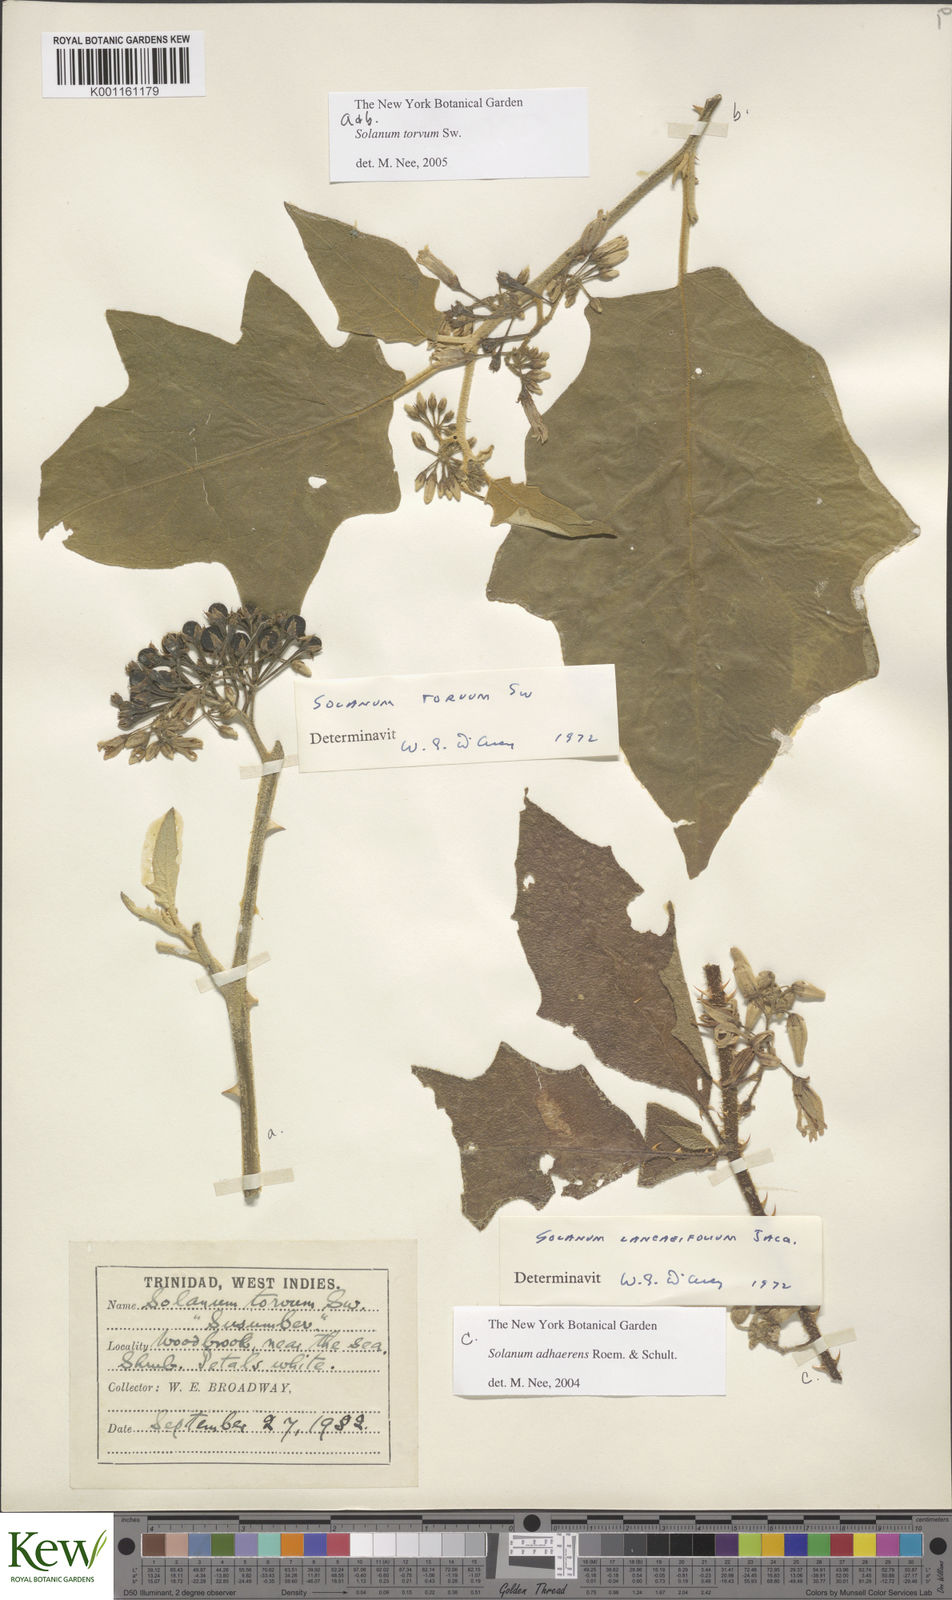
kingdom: Plantae
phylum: Tracheophyta
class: Magnoliopsida
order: Solanales
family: Solanaceae
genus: Solanum
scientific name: Solanum torvum
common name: Turkey berry
